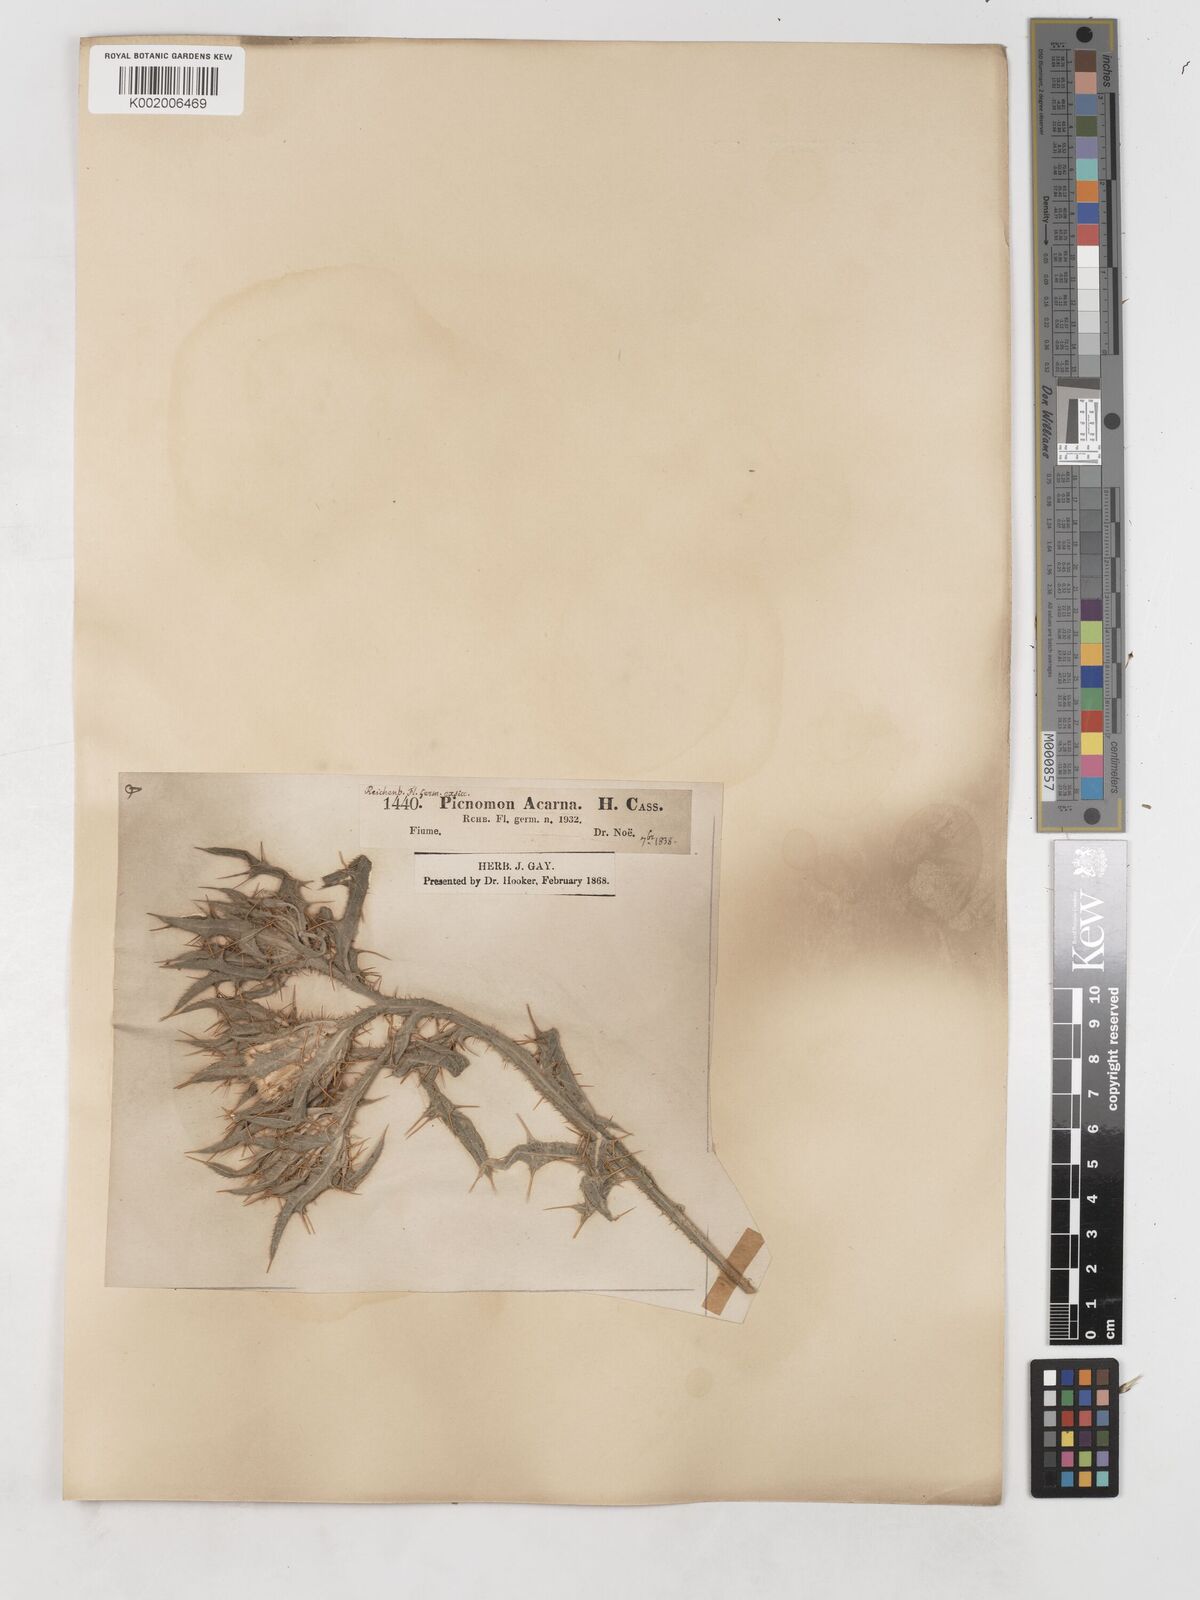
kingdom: Plantae
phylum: Tracheophyta
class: Magnoliopsida
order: Asterales
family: Asteraceae
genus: Picnomon
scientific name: Picnomon acarna
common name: Soldier thistle
